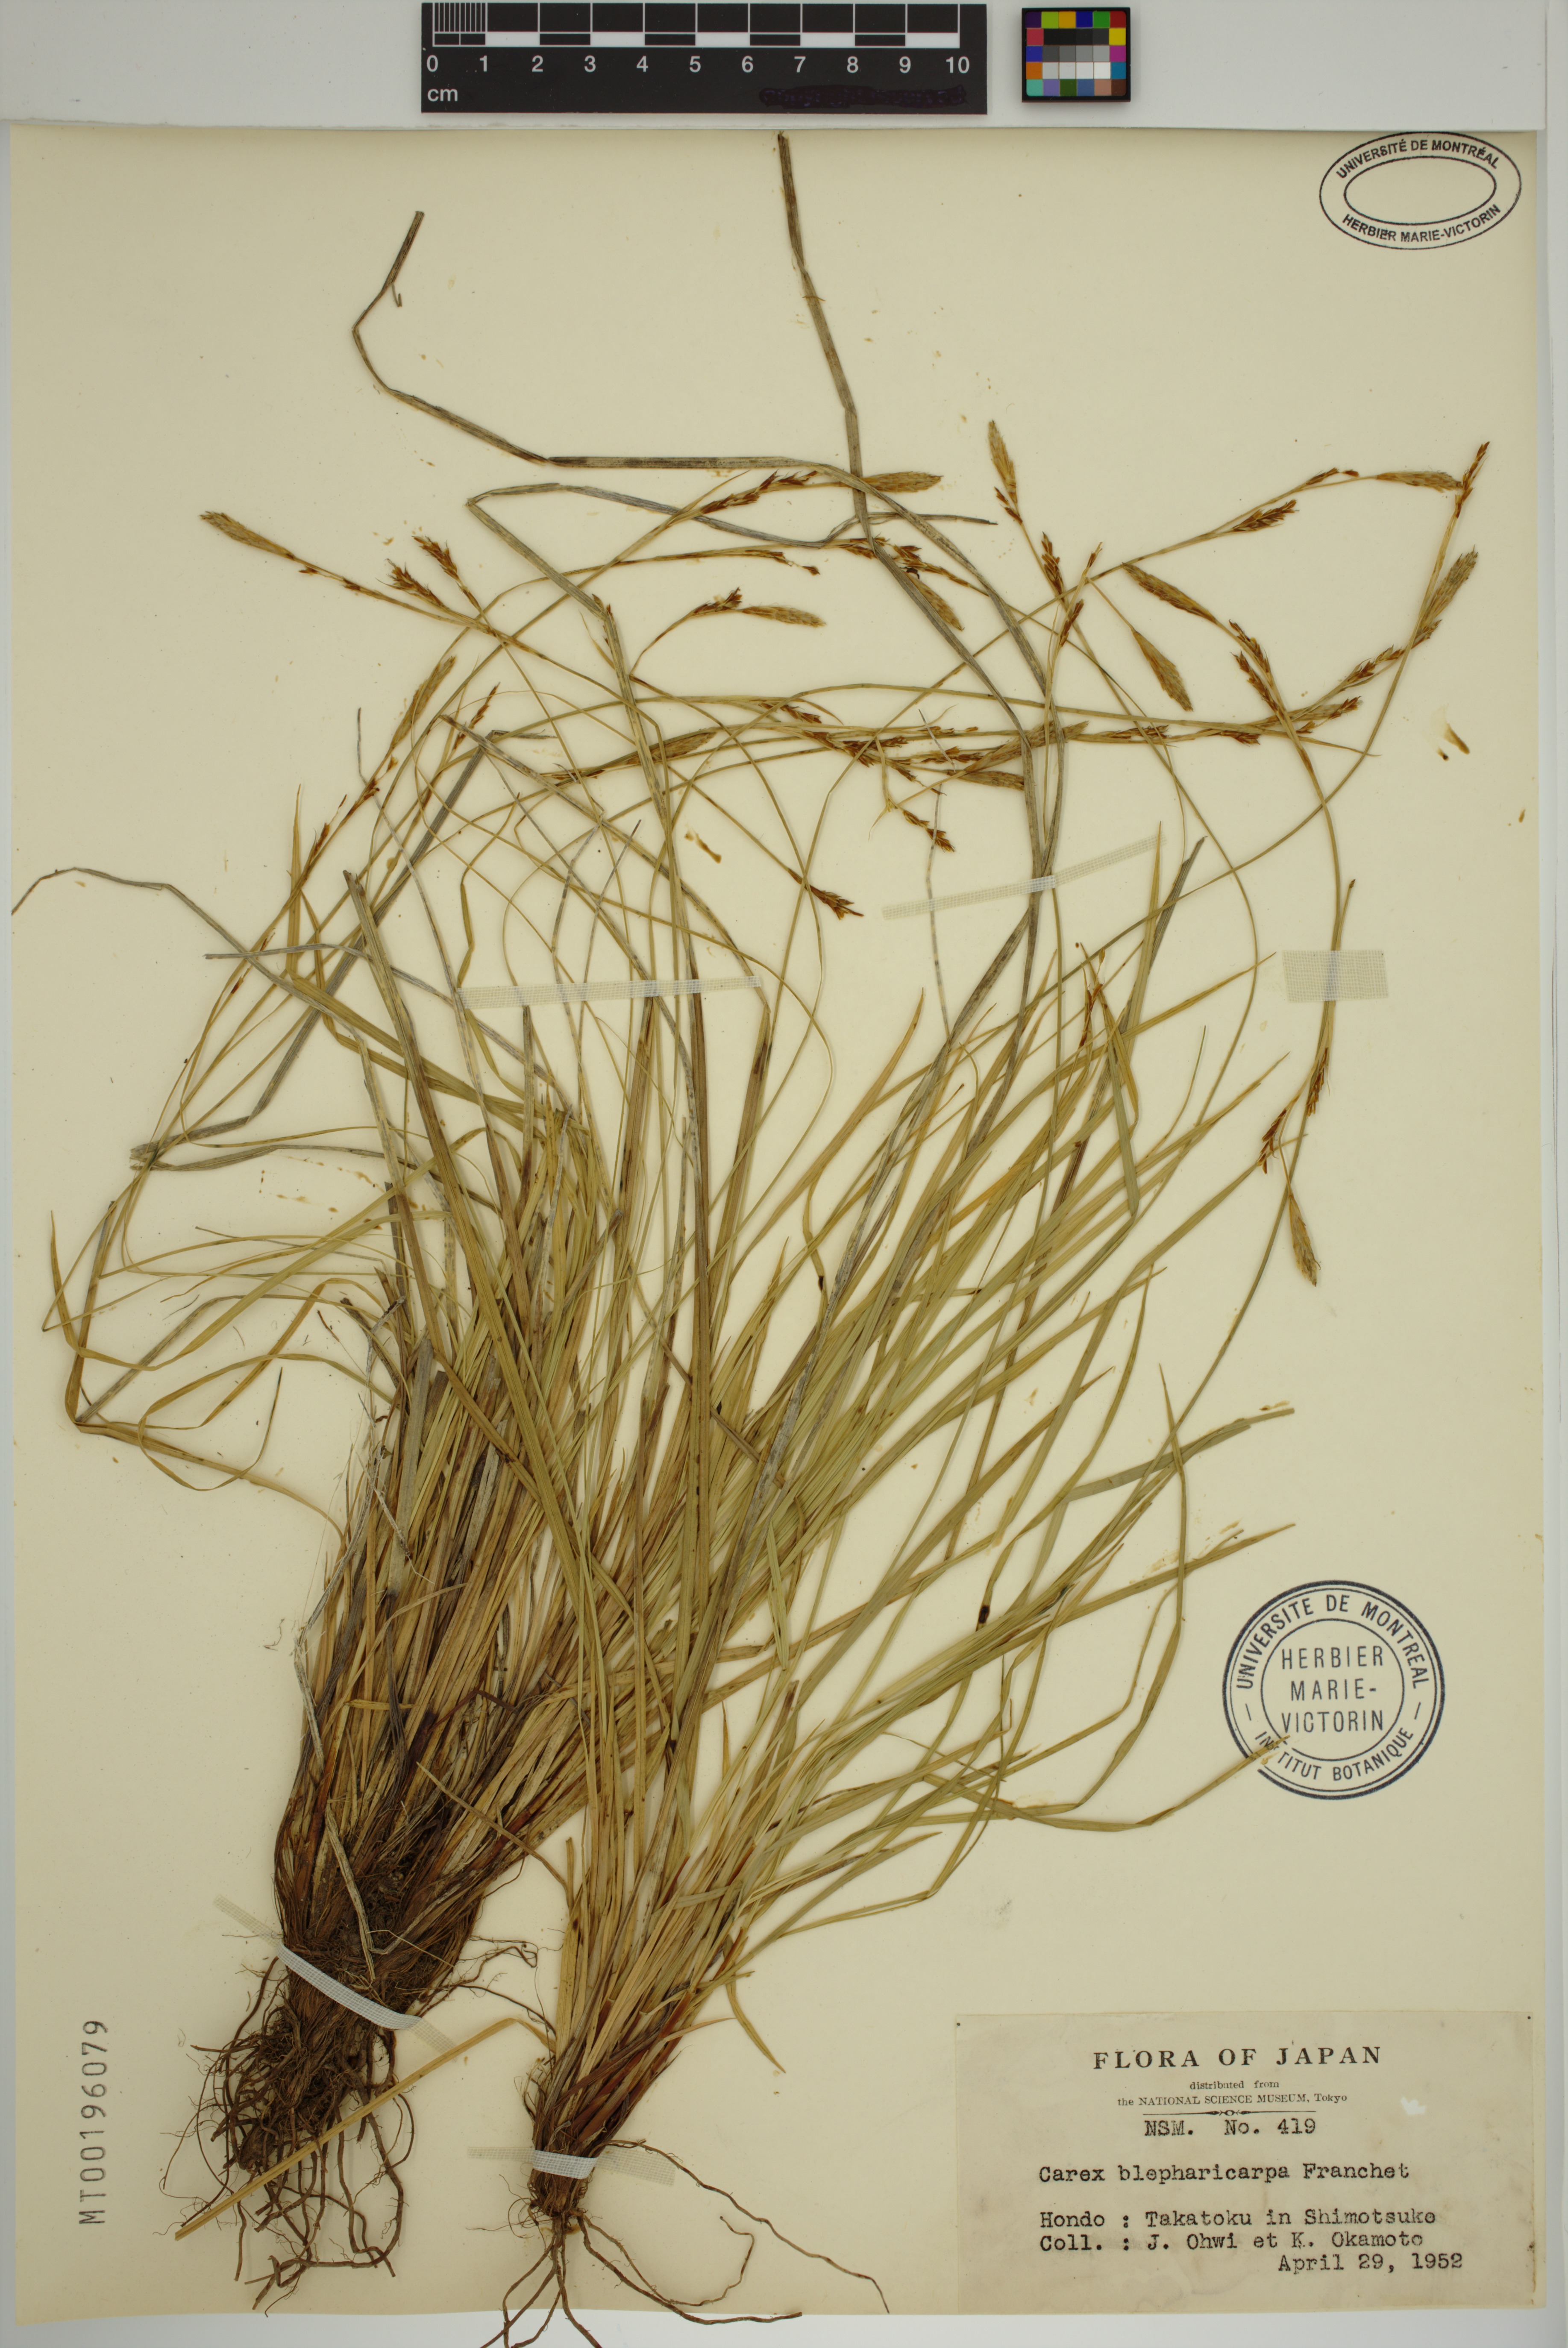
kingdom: Plantae
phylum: Tracheophyta
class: Liliopsida
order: Poales
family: Cyperaceae
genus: Carex
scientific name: Carex blepharicarpa
